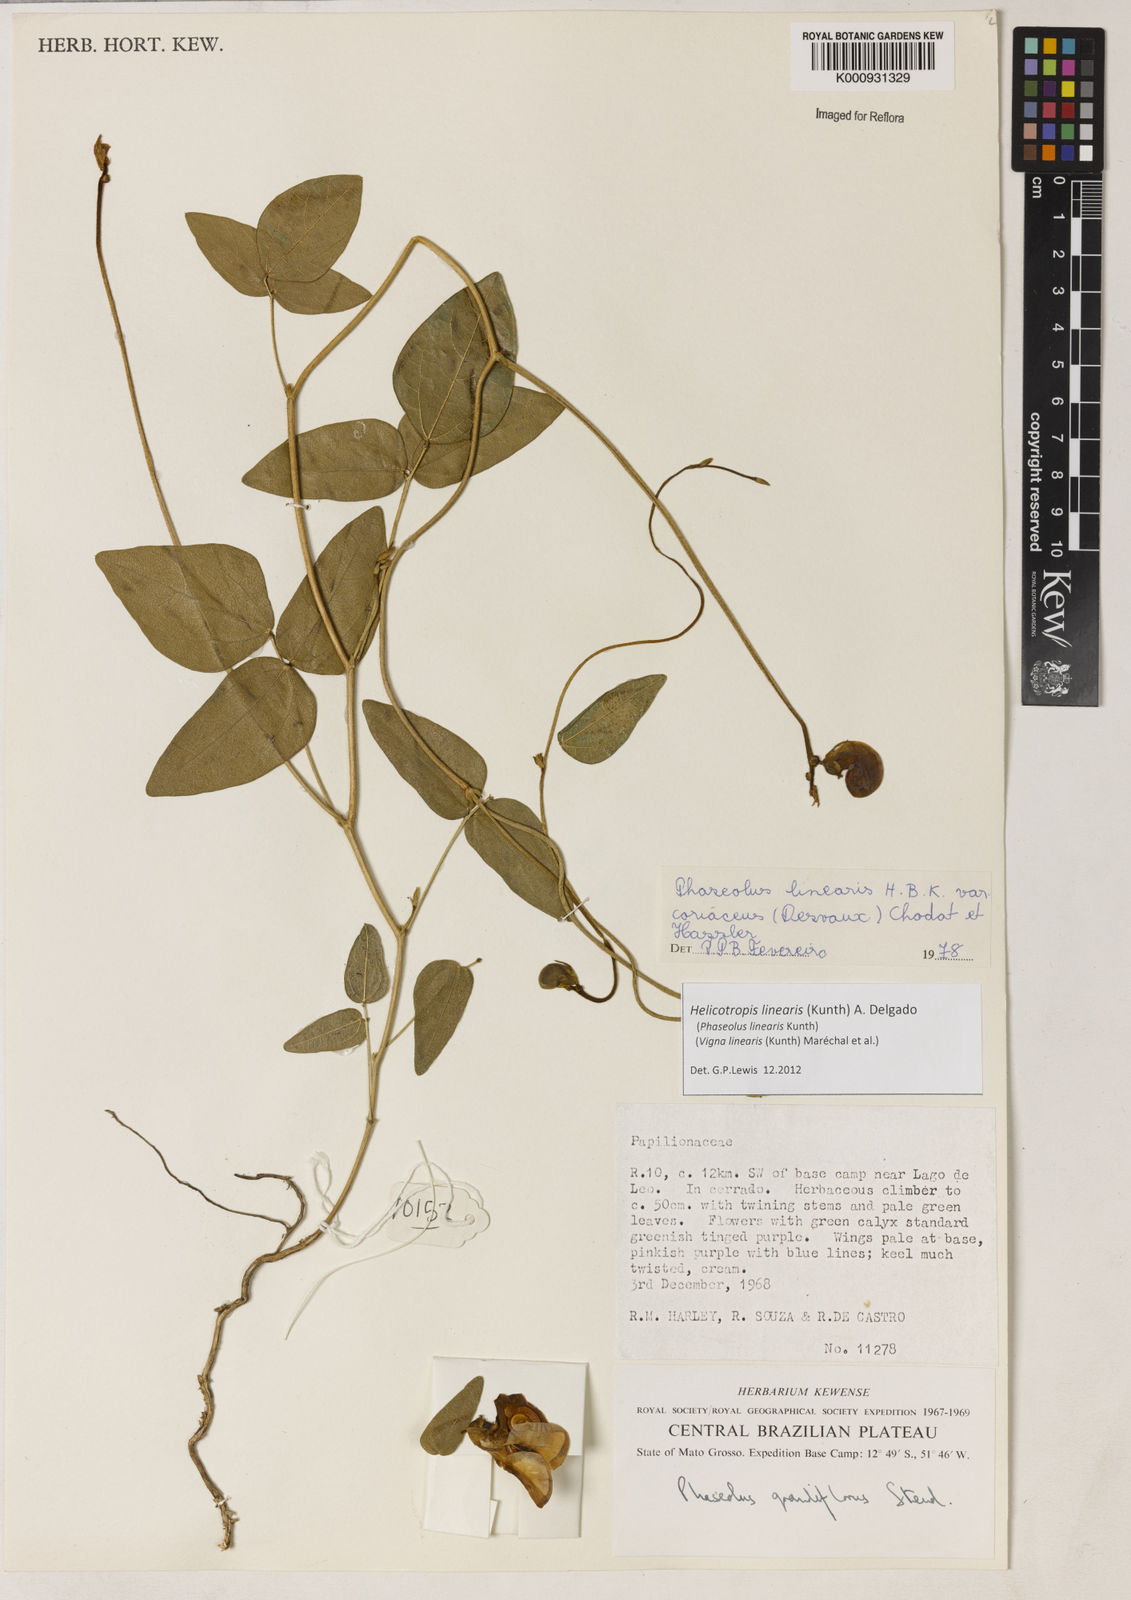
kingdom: Plantae
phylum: Tracheophyta
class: Magnoliopsida
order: Fabales
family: Fabaceae
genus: Helicotropis
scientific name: Helicotropis linearis
